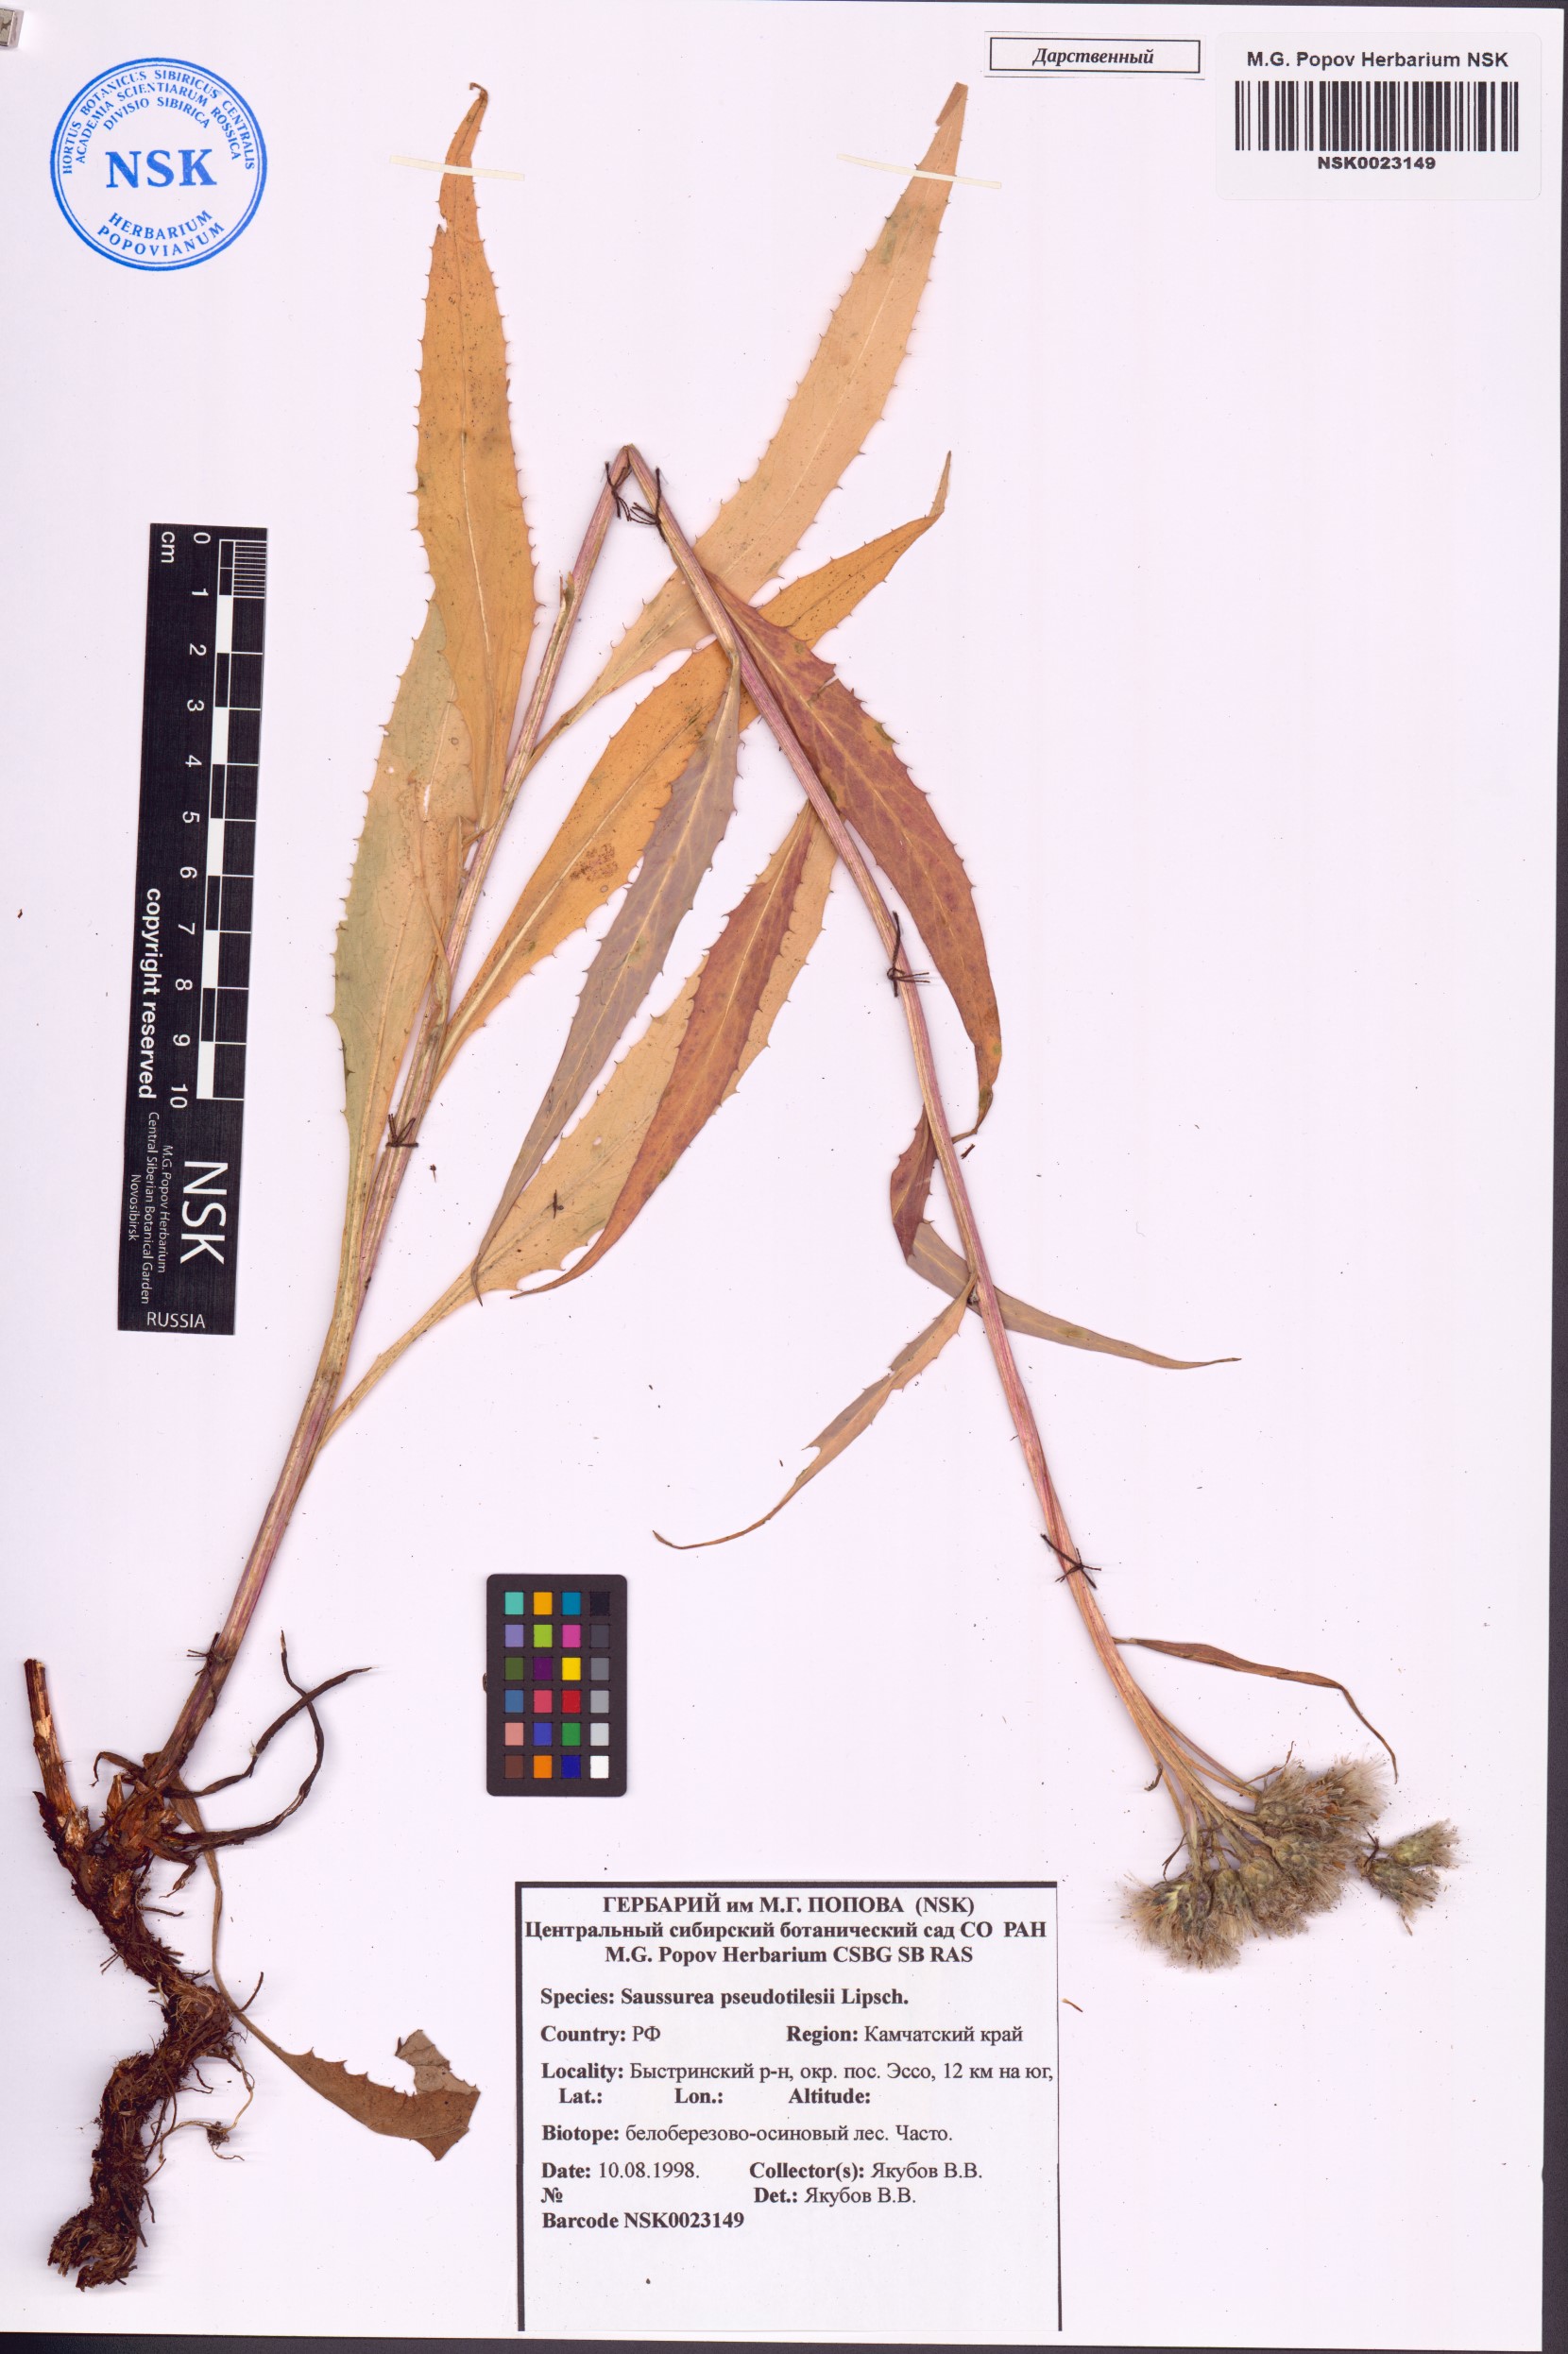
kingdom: Plantae
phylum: Tracheophyta
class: Magnoliopsida
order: Asterales
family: Asteraceae
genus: Saussurea
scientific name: Saussurea pseudotilesii
